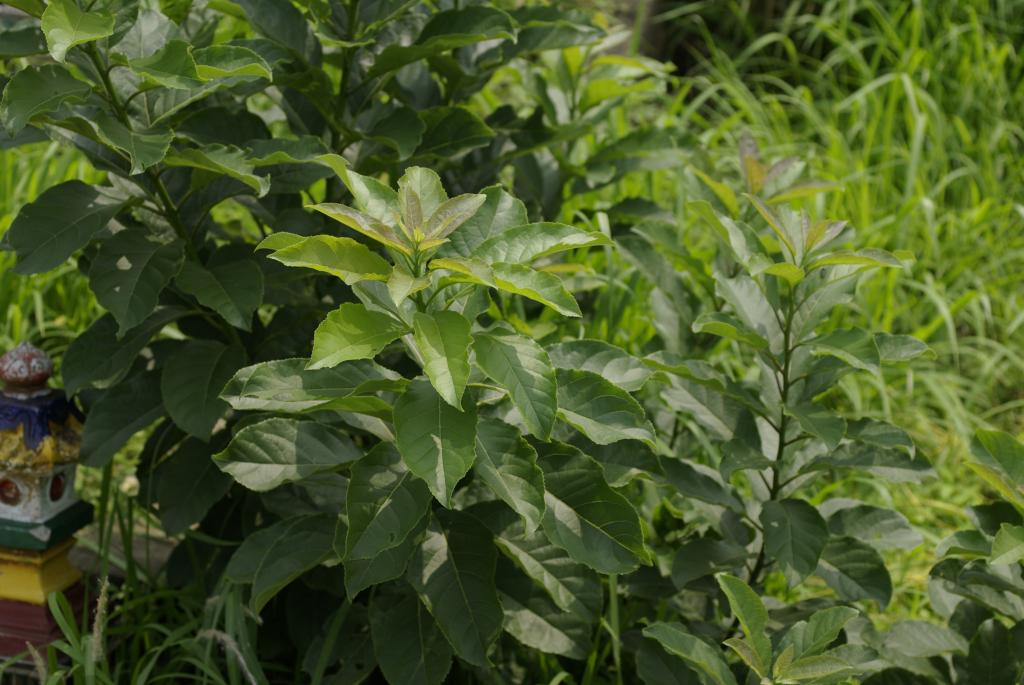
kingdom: Plantae
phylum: Tracheophyta
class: Magnoliopsida
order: Boraginales
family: Ehretiaceae
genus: Ehretia
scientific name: Ehretia acuminata
